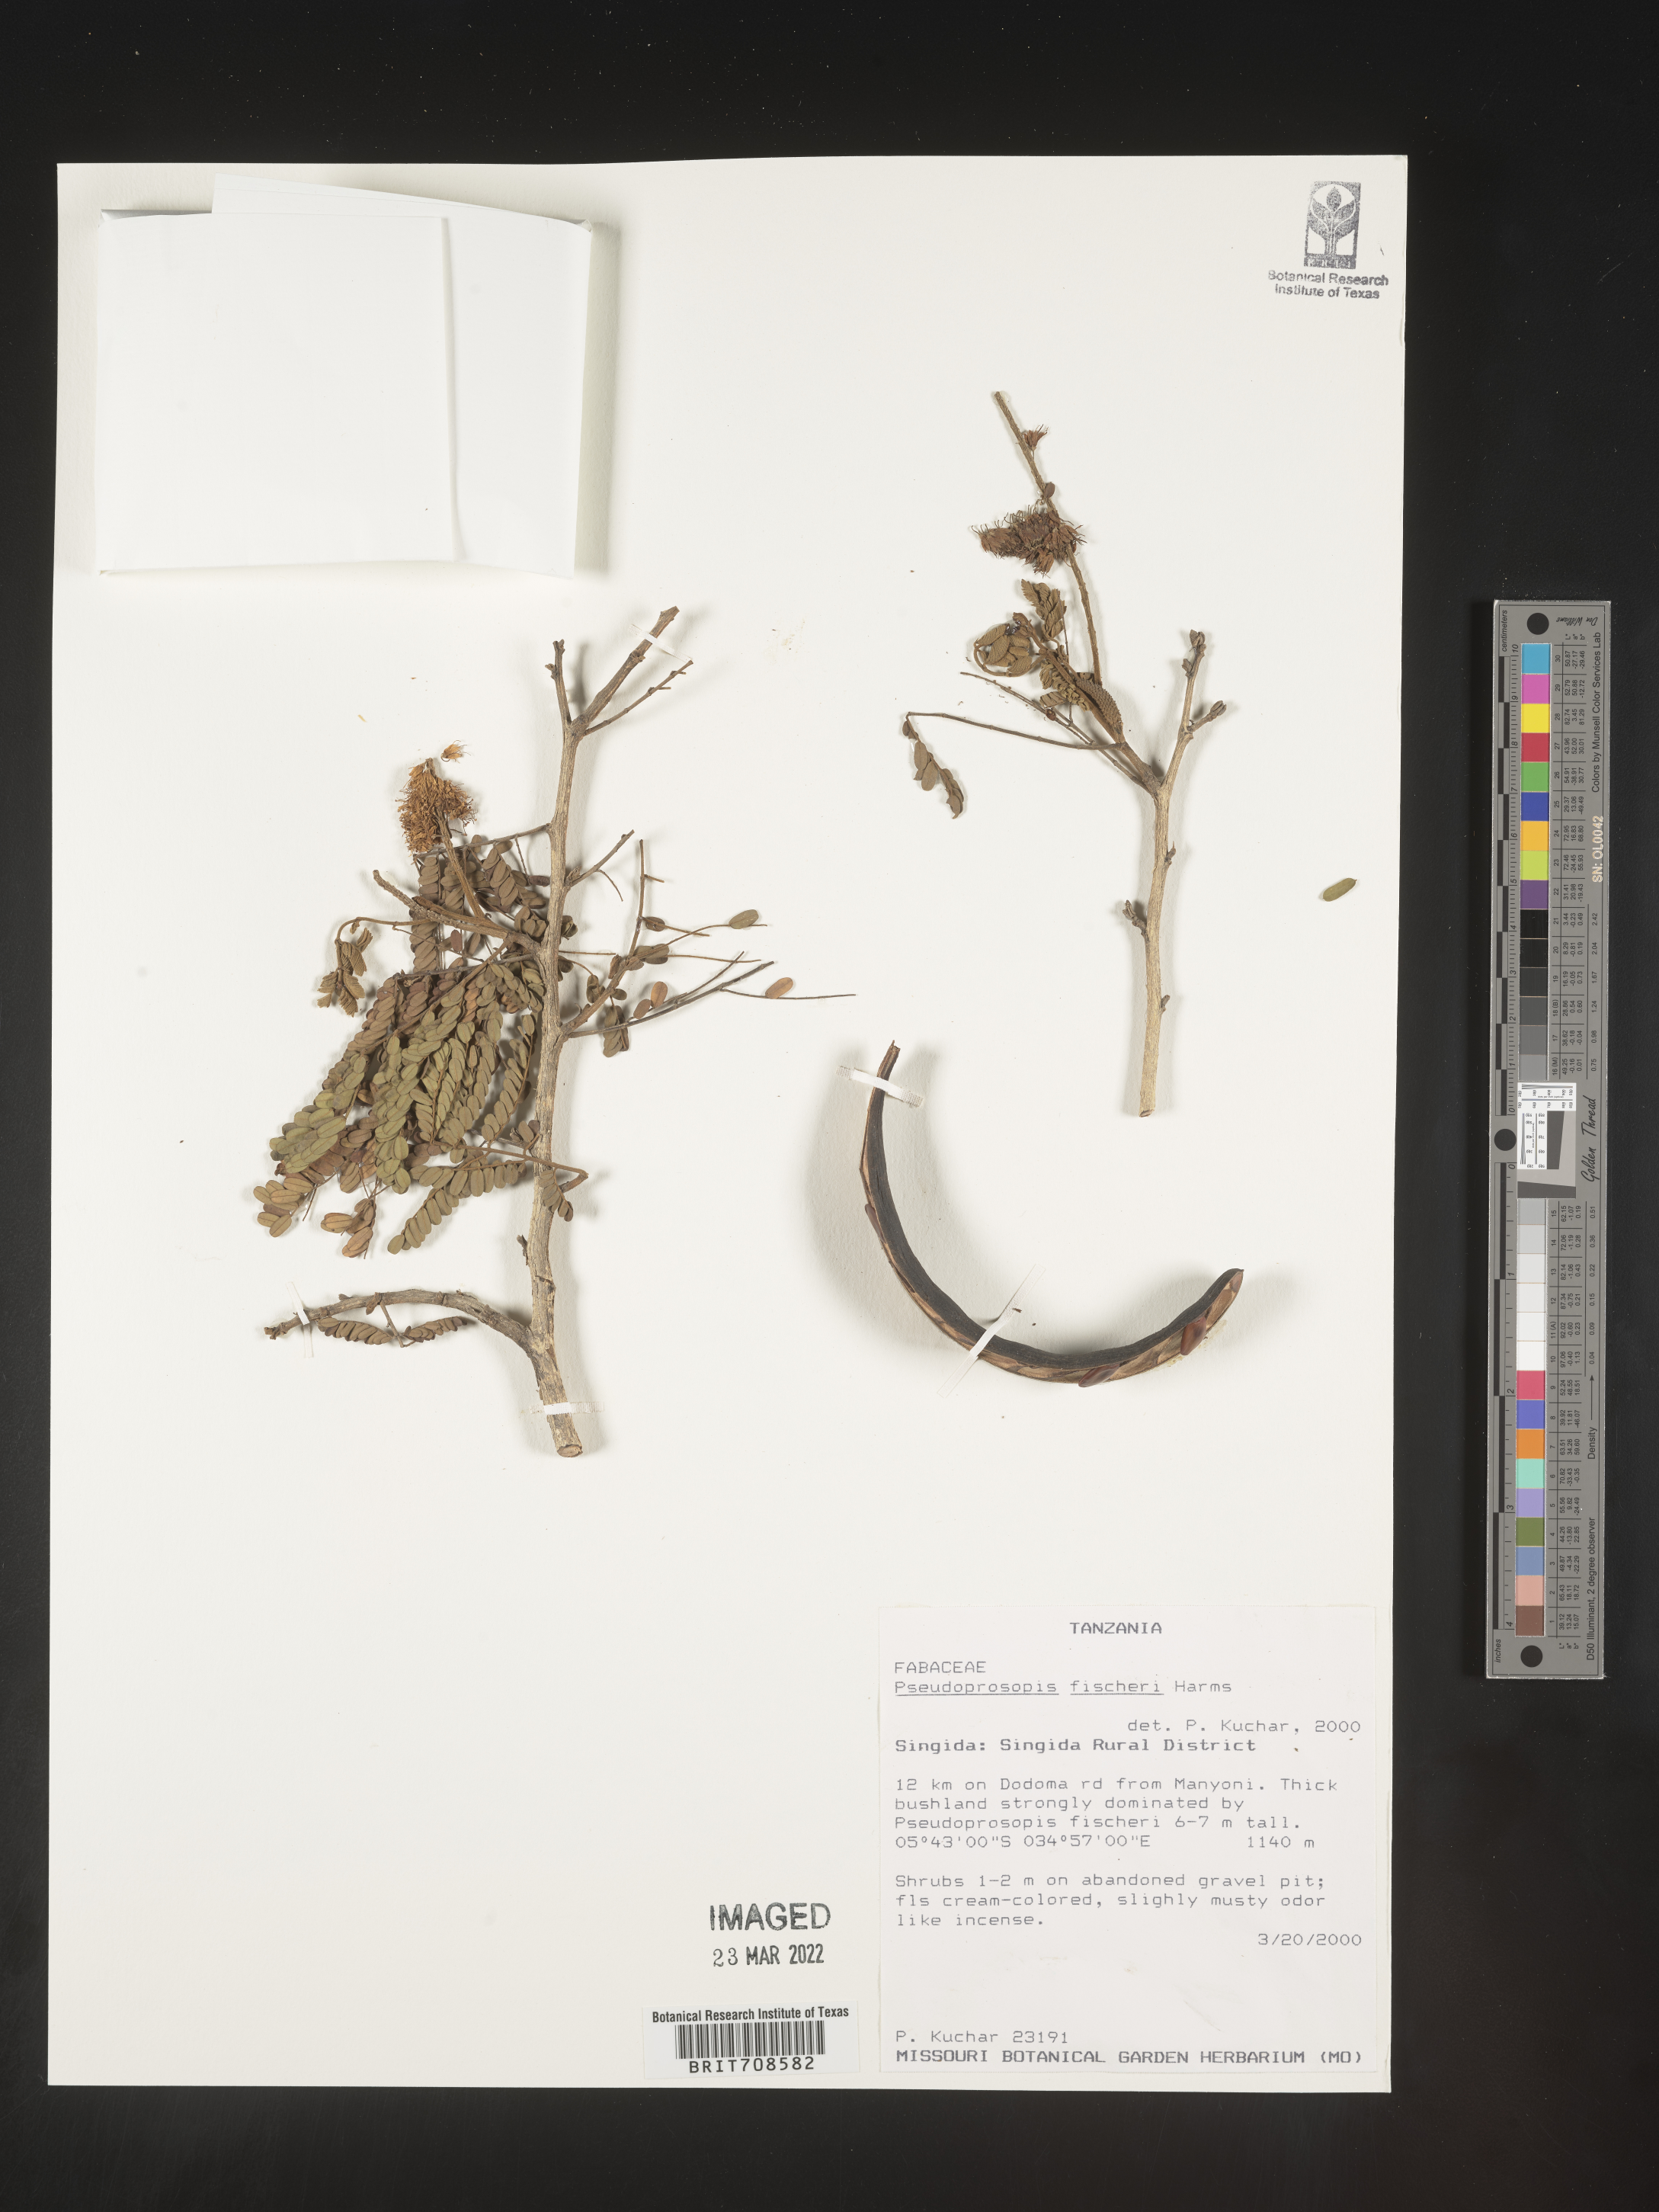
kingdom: Plantae
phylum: Tracheophyta
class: Magnoliopsida
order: Fabales
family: Fabaceae
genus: Pseudoprosopis
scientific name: Pseudoprosopis
